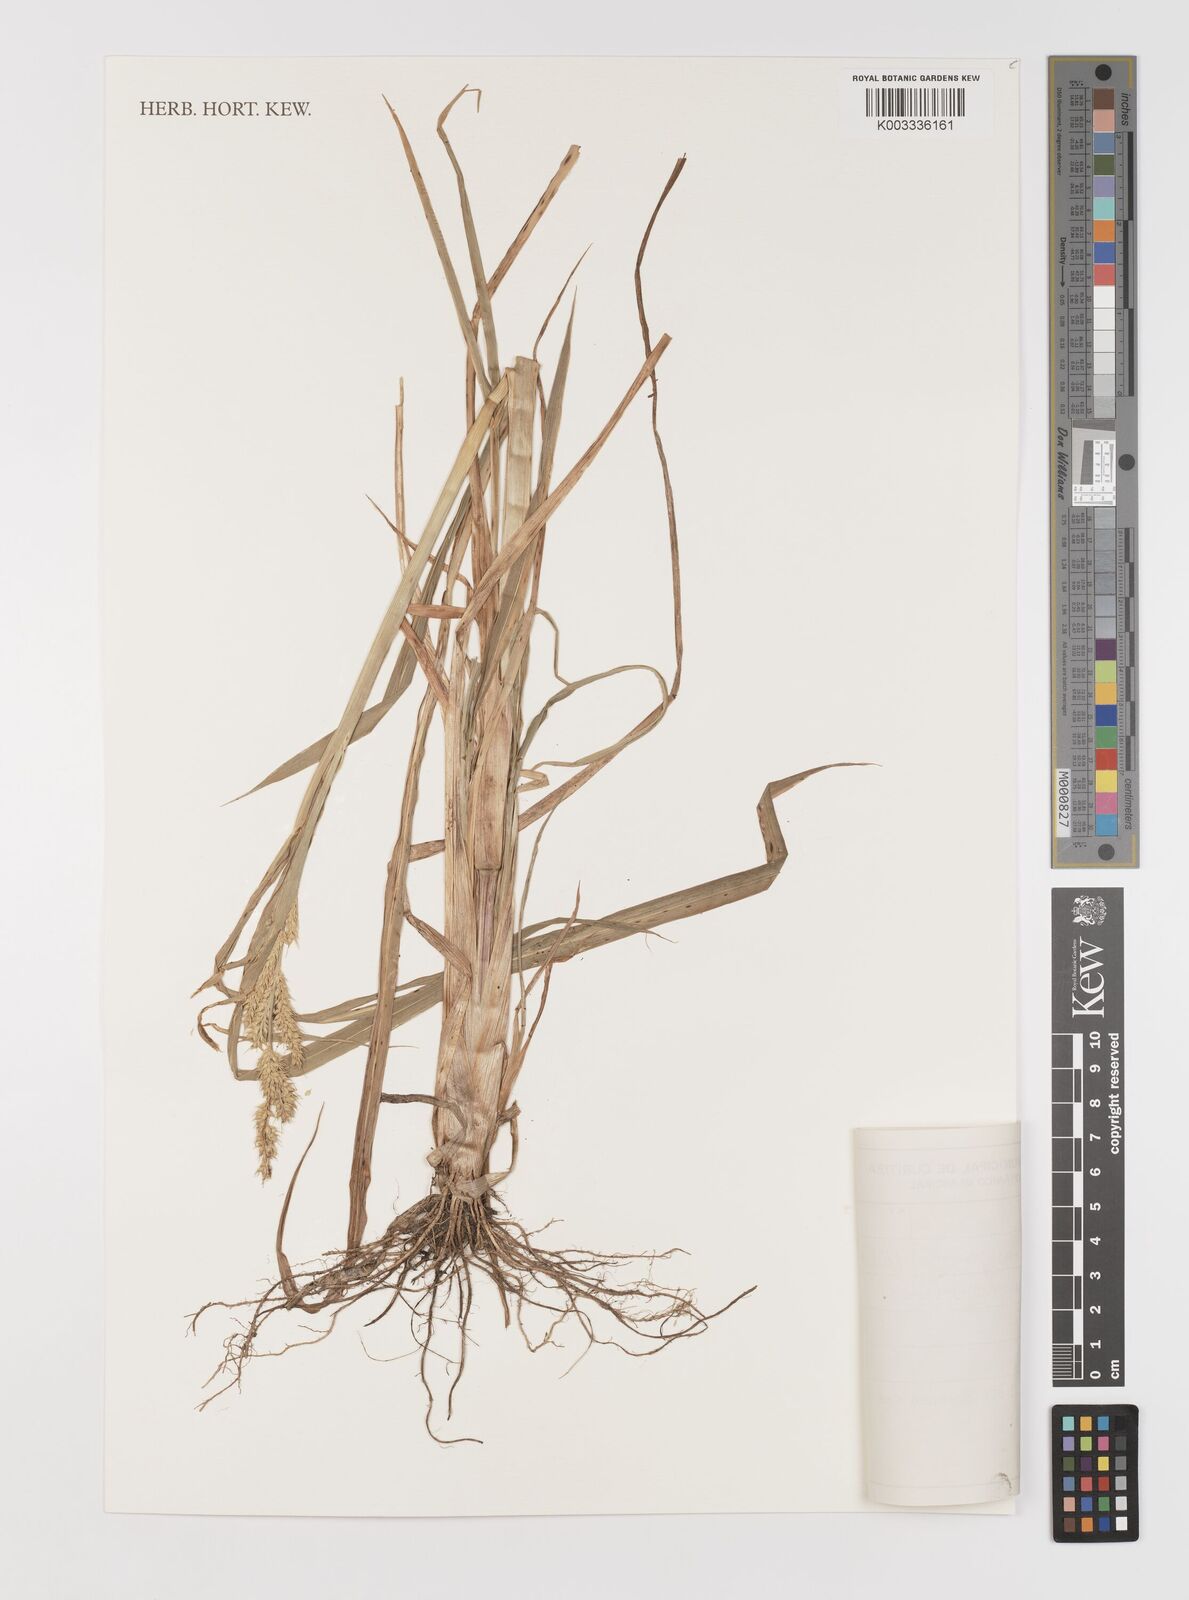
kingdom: Plantae
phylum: Tracheophyta
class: Liliopsida
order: Poales
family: Poaceae
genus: Echinochloa
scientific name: Echinochloa crus-pavonis
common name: Gulf cockspur grass
